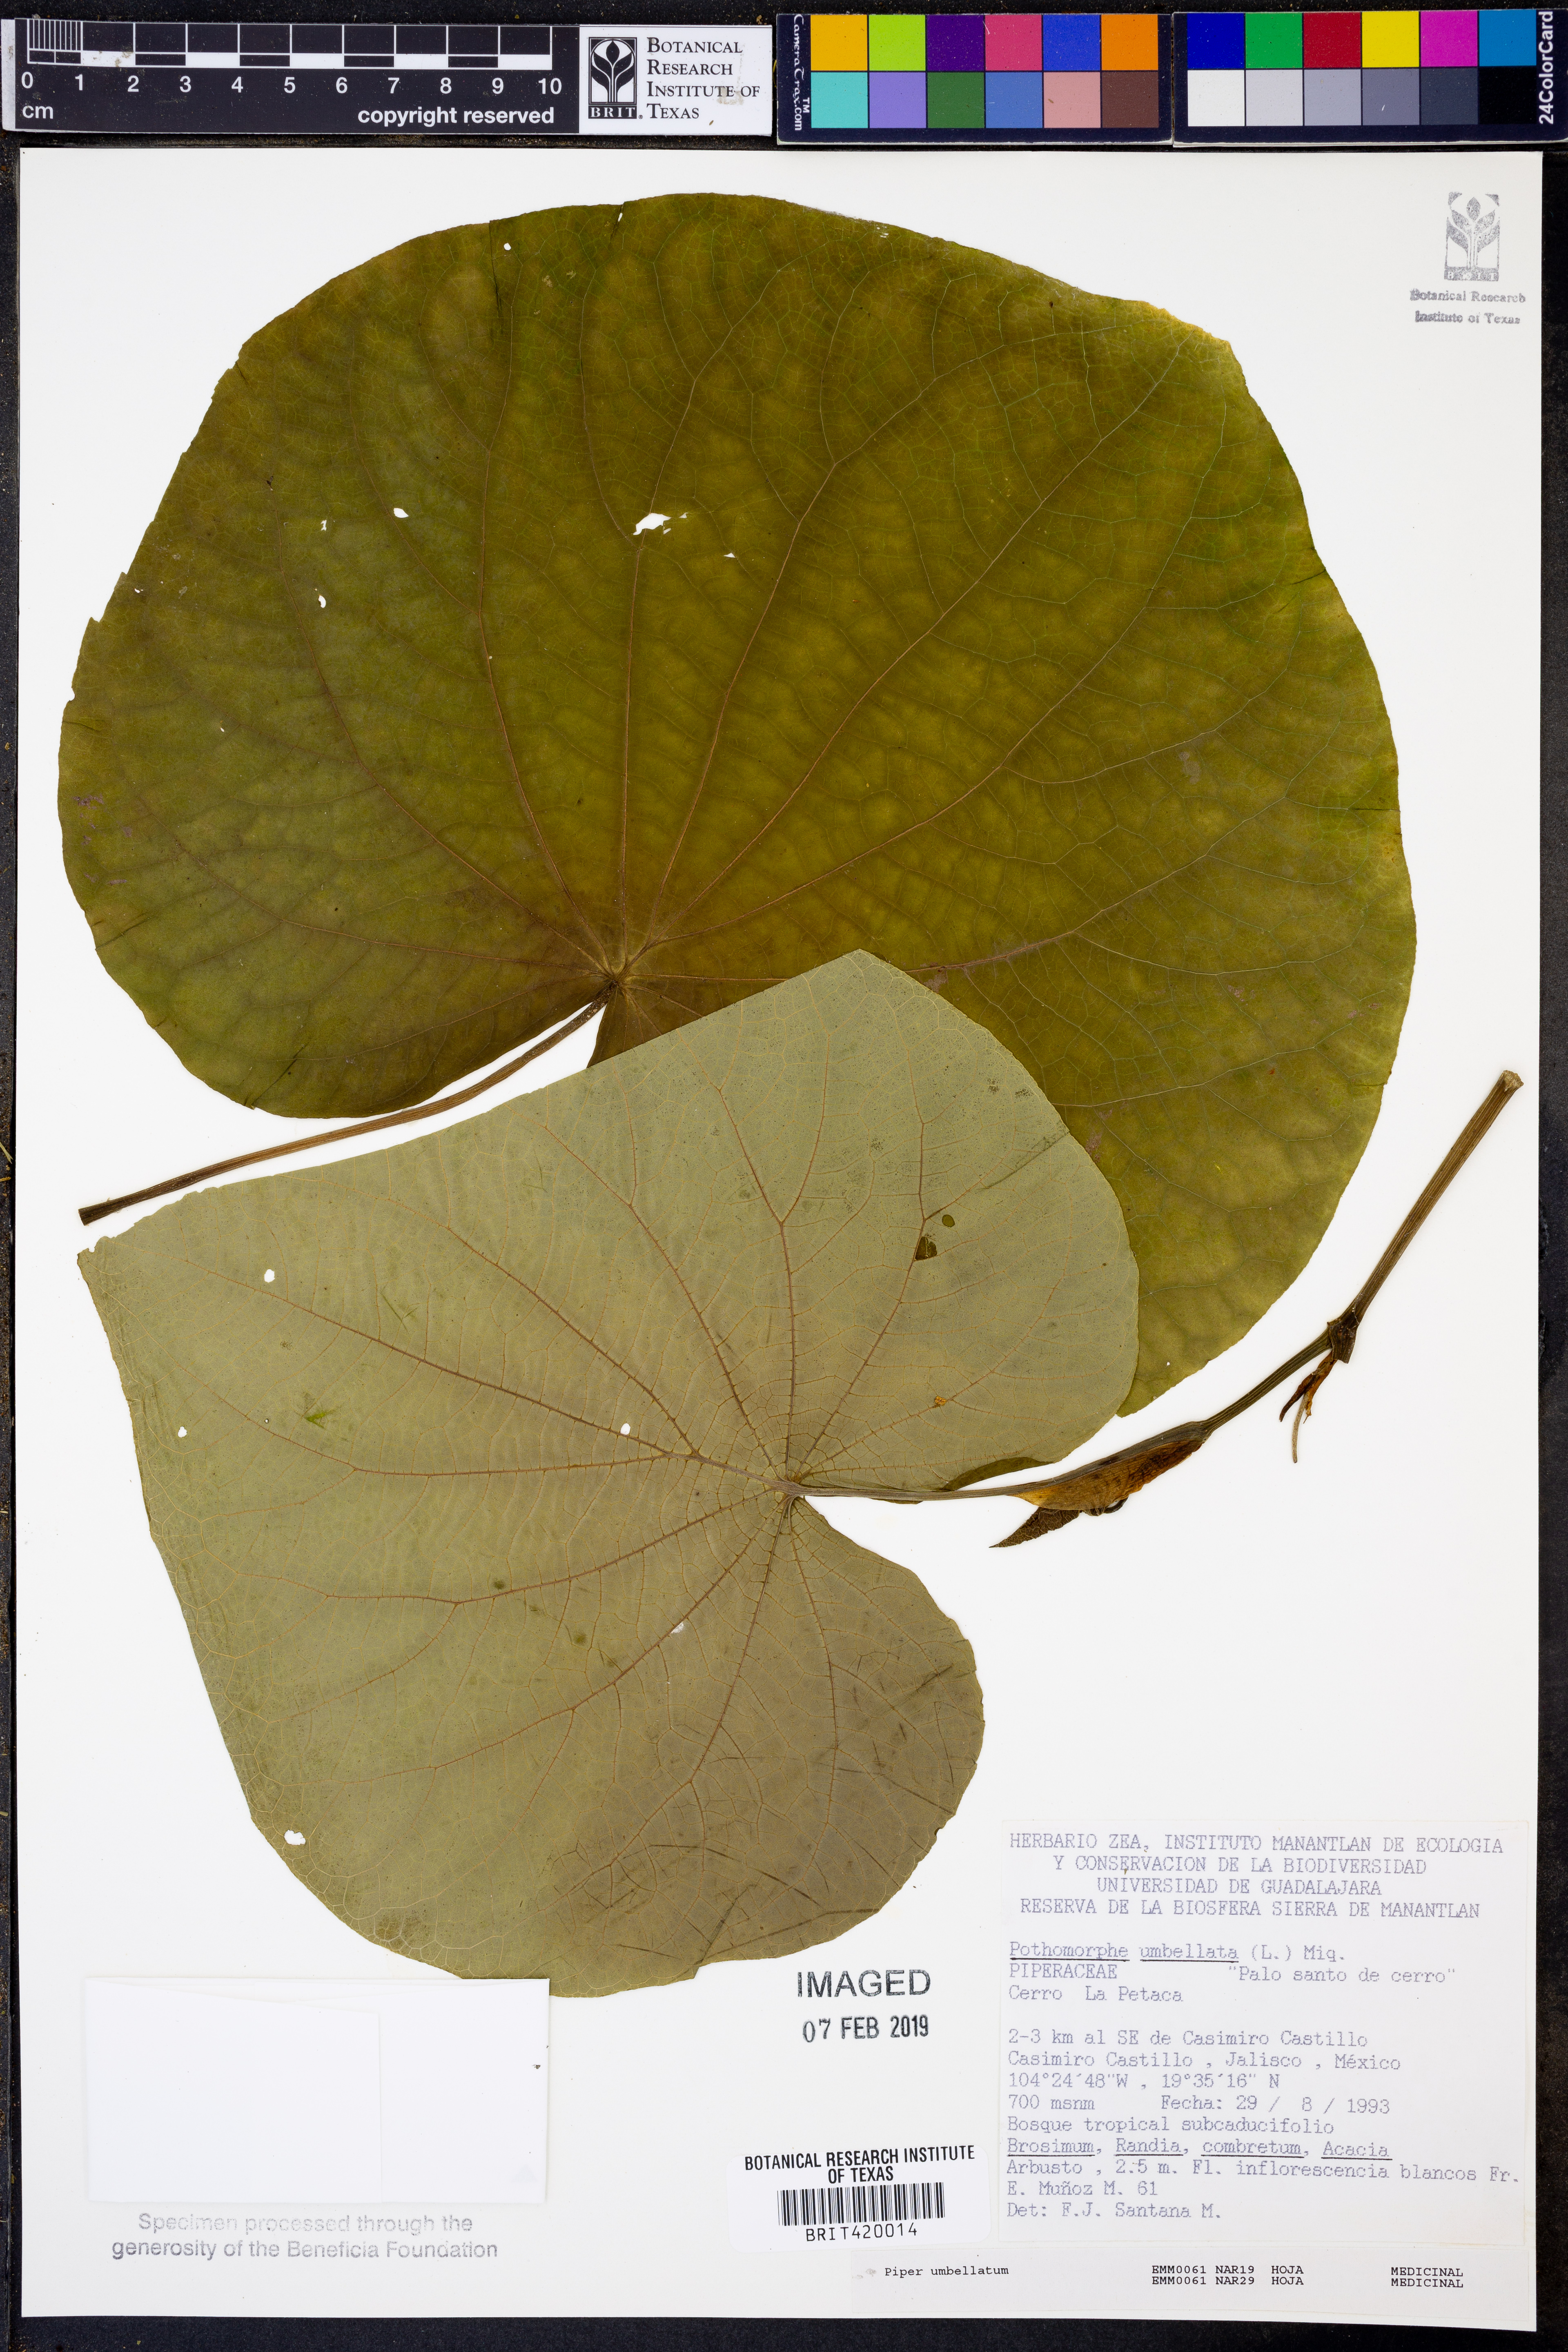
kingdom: Plantae
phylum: Tracheophyta
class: Magnoliopsida
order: Piperales
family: Piperaceae
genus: Piper
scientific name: Piper umbellatum
